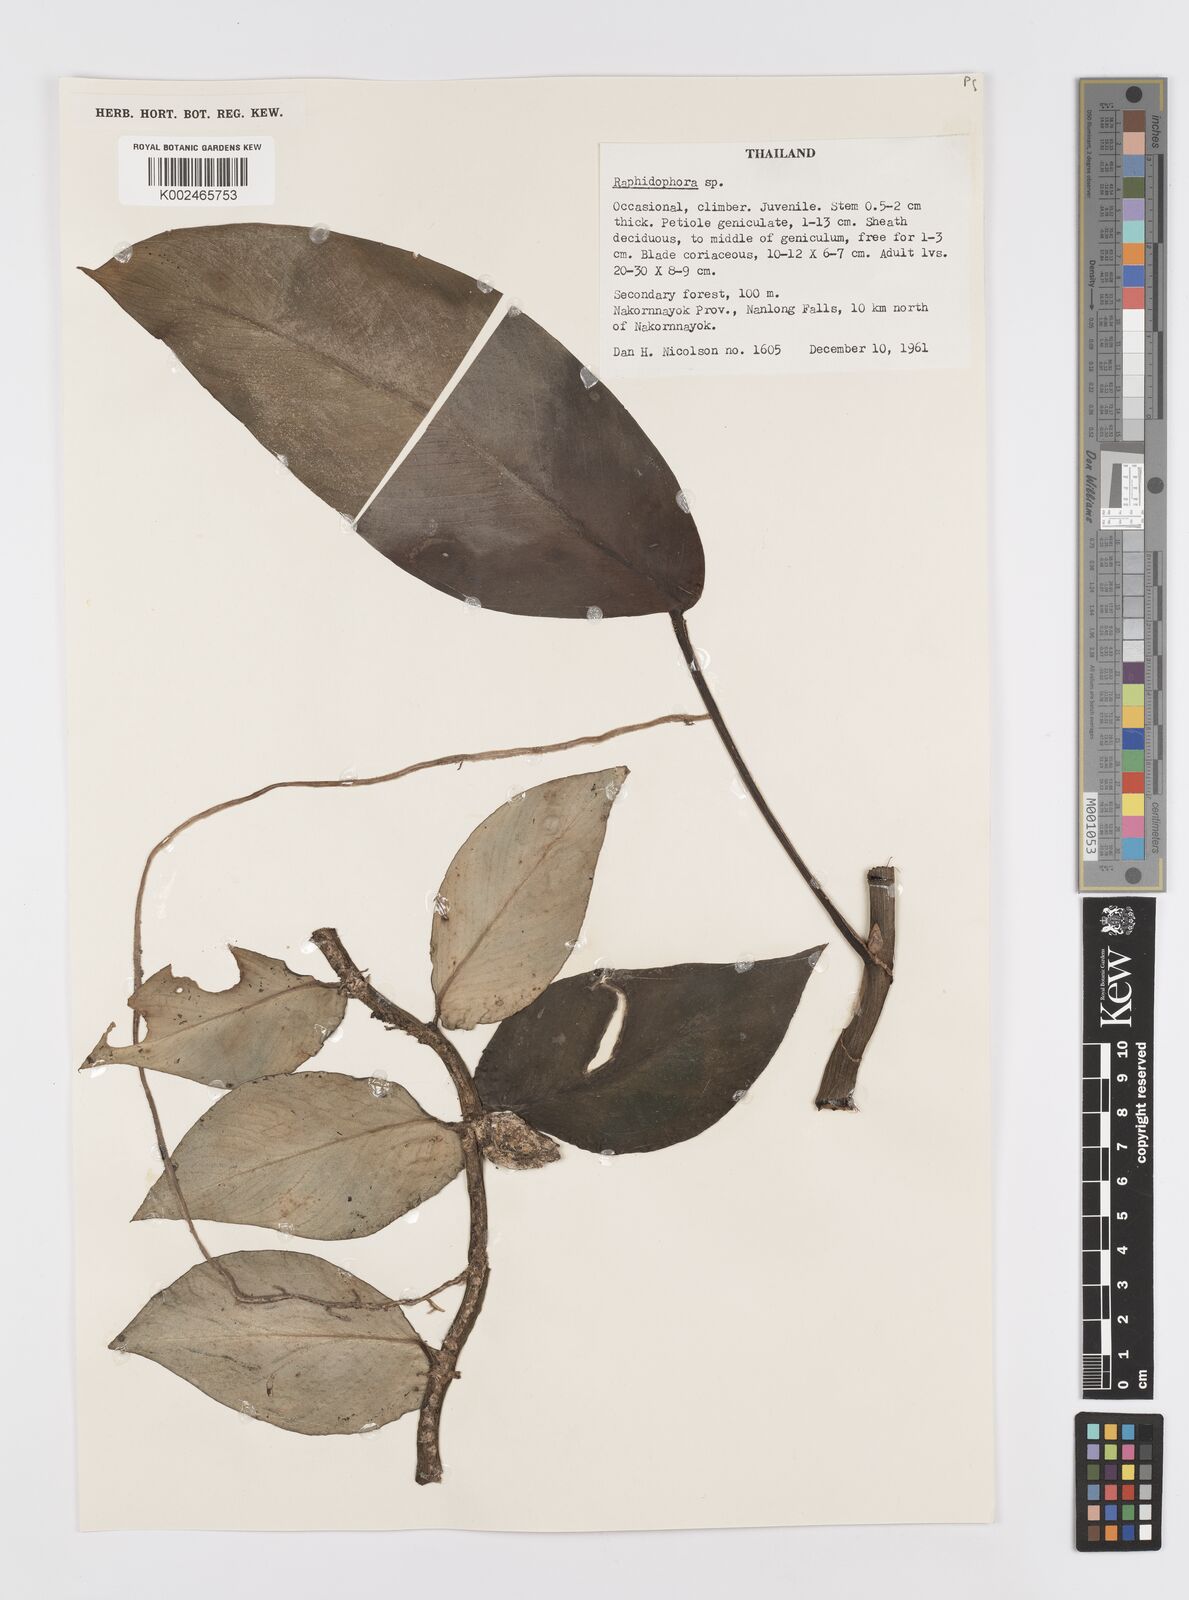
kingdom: Plantae
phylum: Tracheophyta
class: Liliopsida
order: Alismatales
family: Araceae
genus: Rhaphidophora
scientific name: Rhaphidophora
